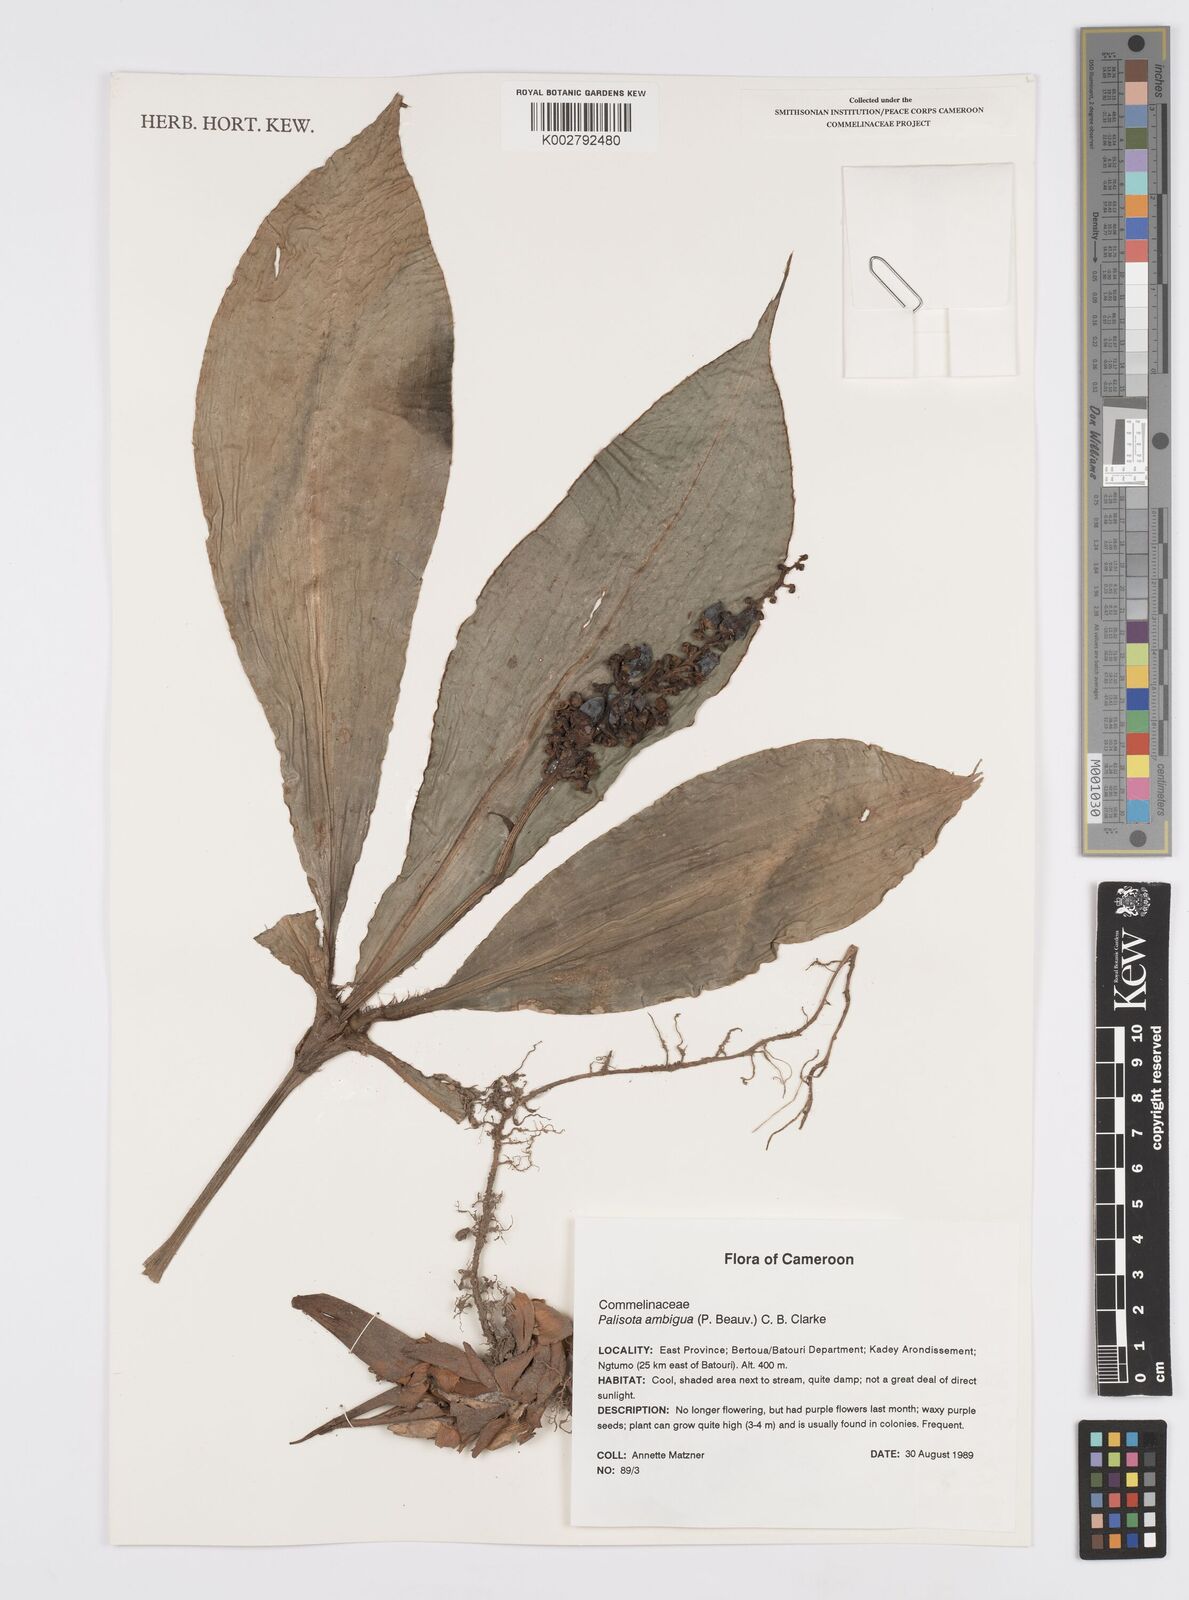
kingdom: Plantae
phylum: Tracheophyta
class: Liliopsida
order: Commelinales
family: Commelinaceae
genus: Palisota
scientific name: Palisota ambigua
